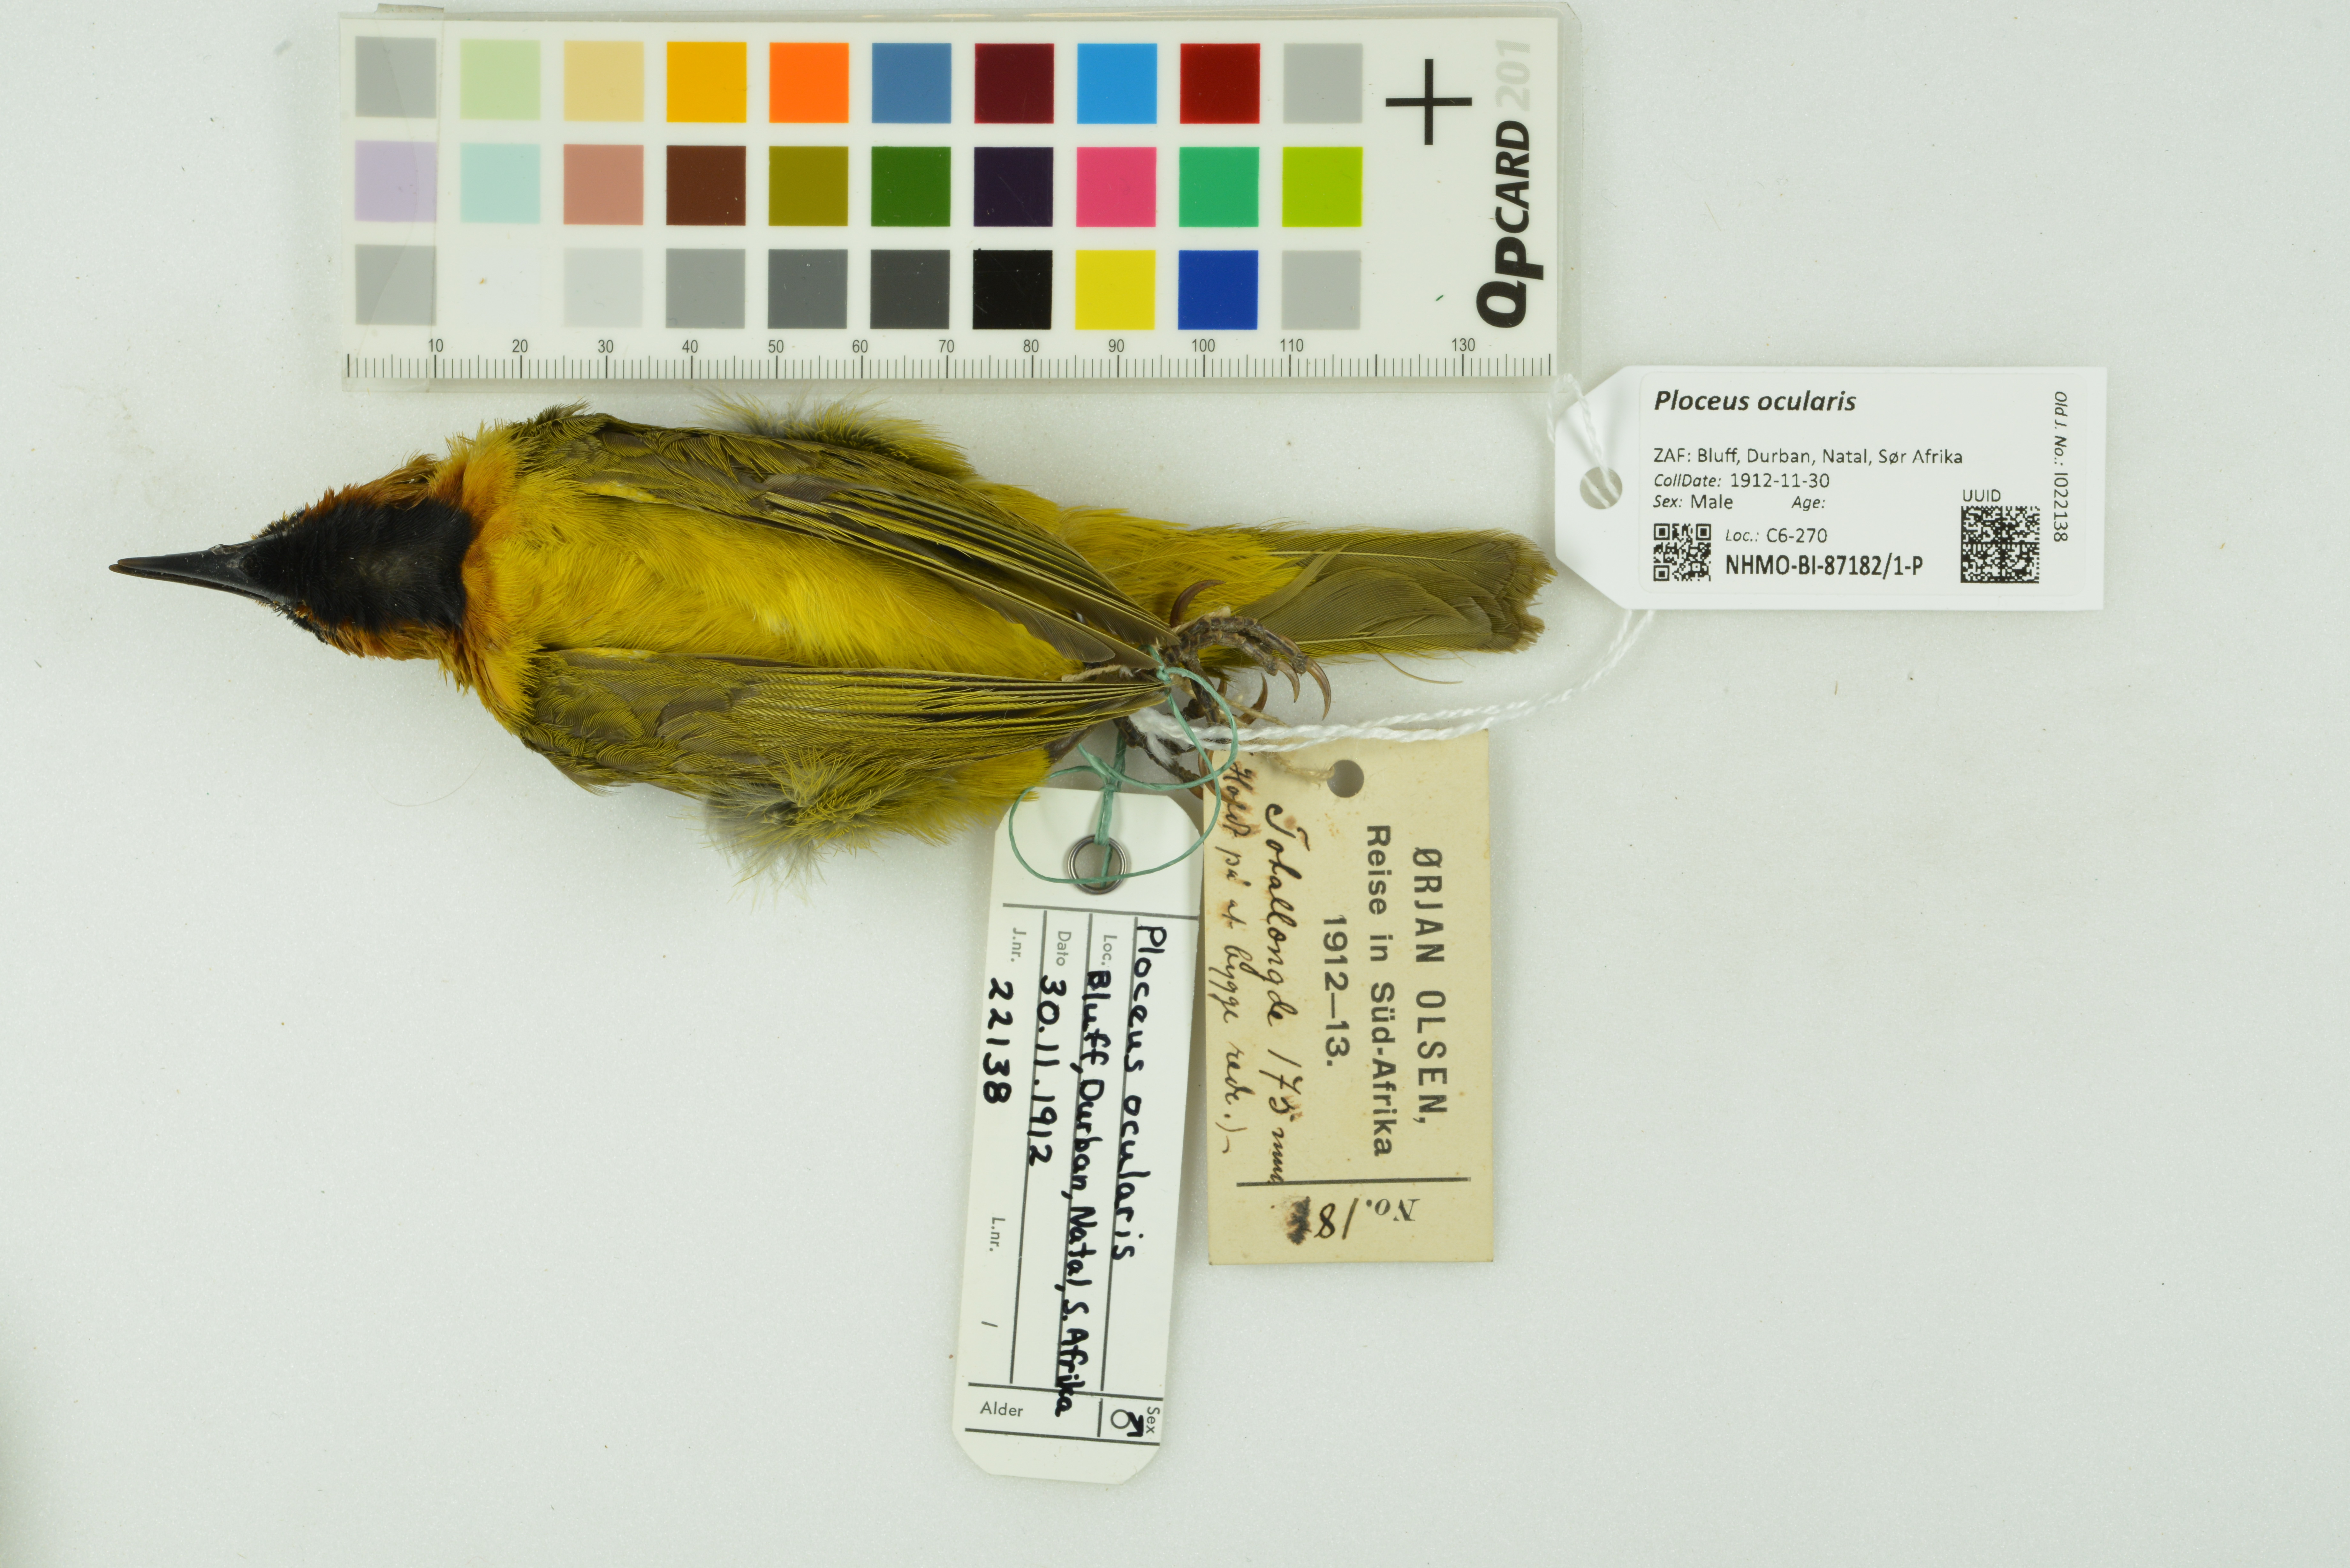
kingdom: Animalia
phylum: Chordata
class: Aves
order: Passeriformes
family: Ploceidae
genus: Ploceus
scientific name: Ploceus ocularis
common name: Spectacled weaver
